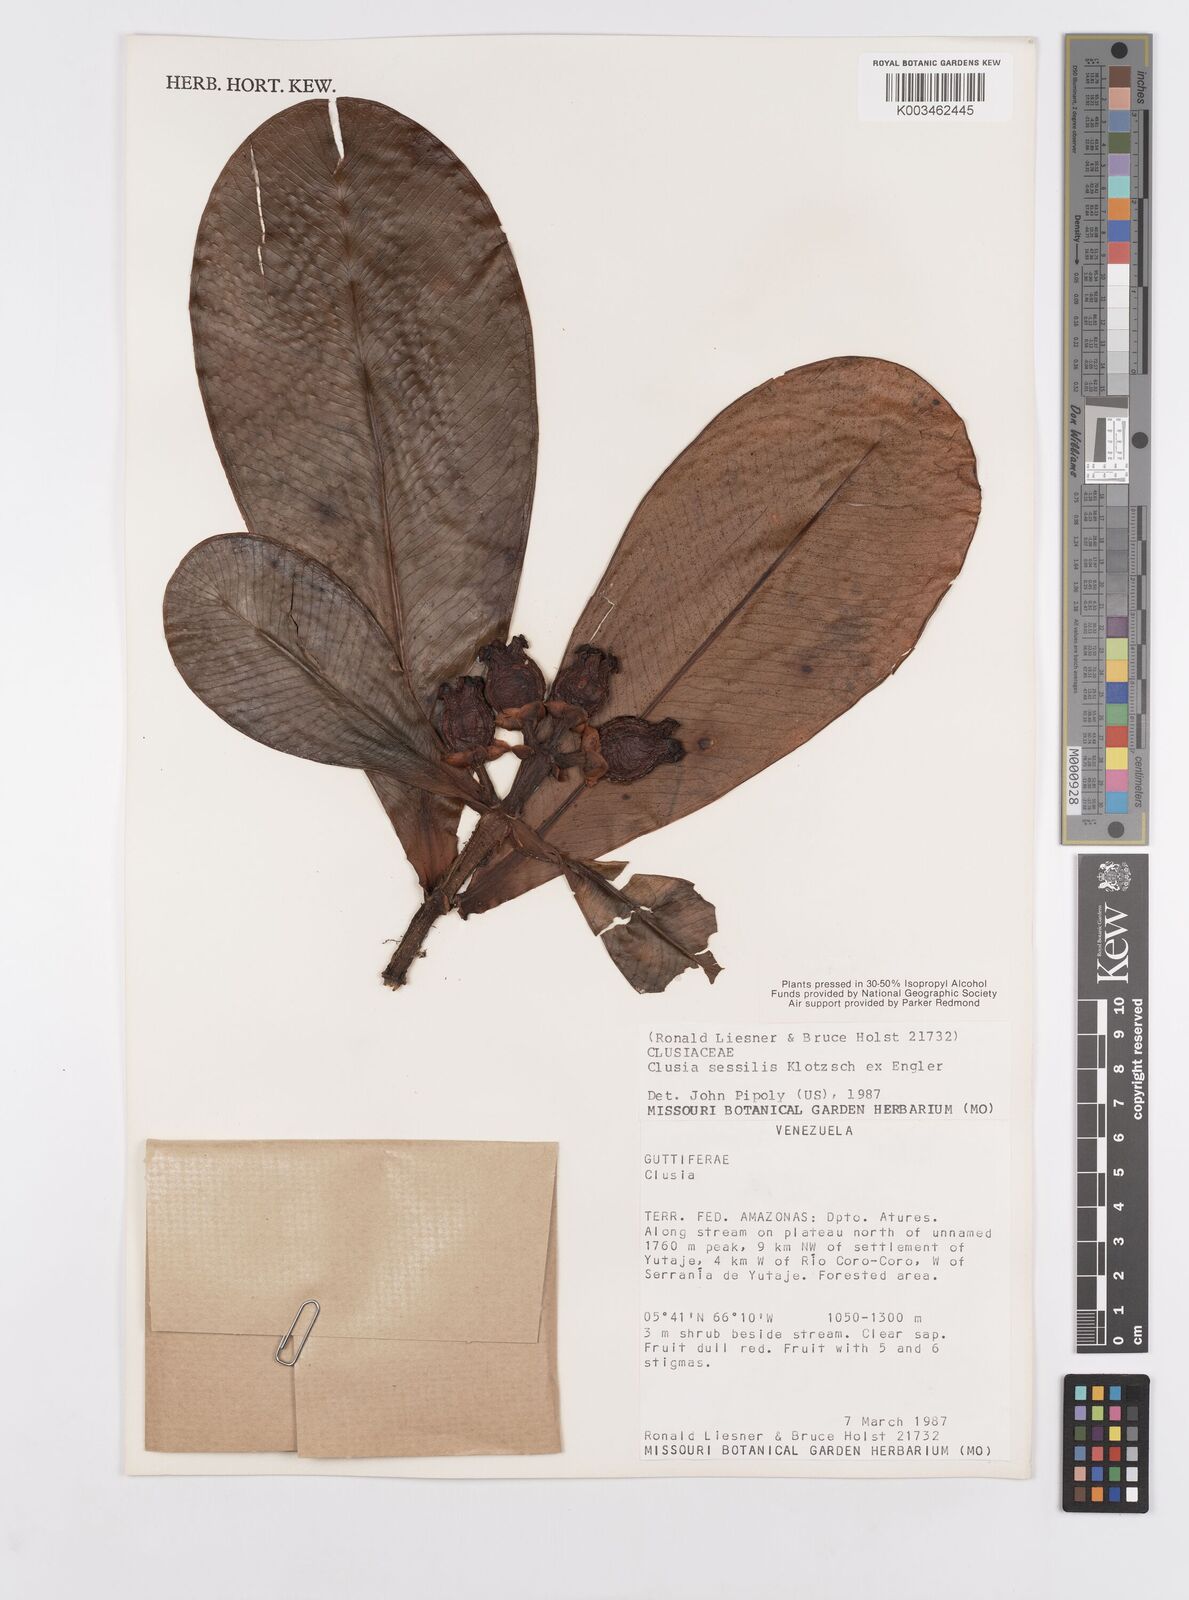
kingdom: Plantae
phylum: Tracheophyta
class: Magnoliopsida
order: Malpighiales
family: Clusiaceae
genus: Garcinia
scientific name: Garcinia sessilis
